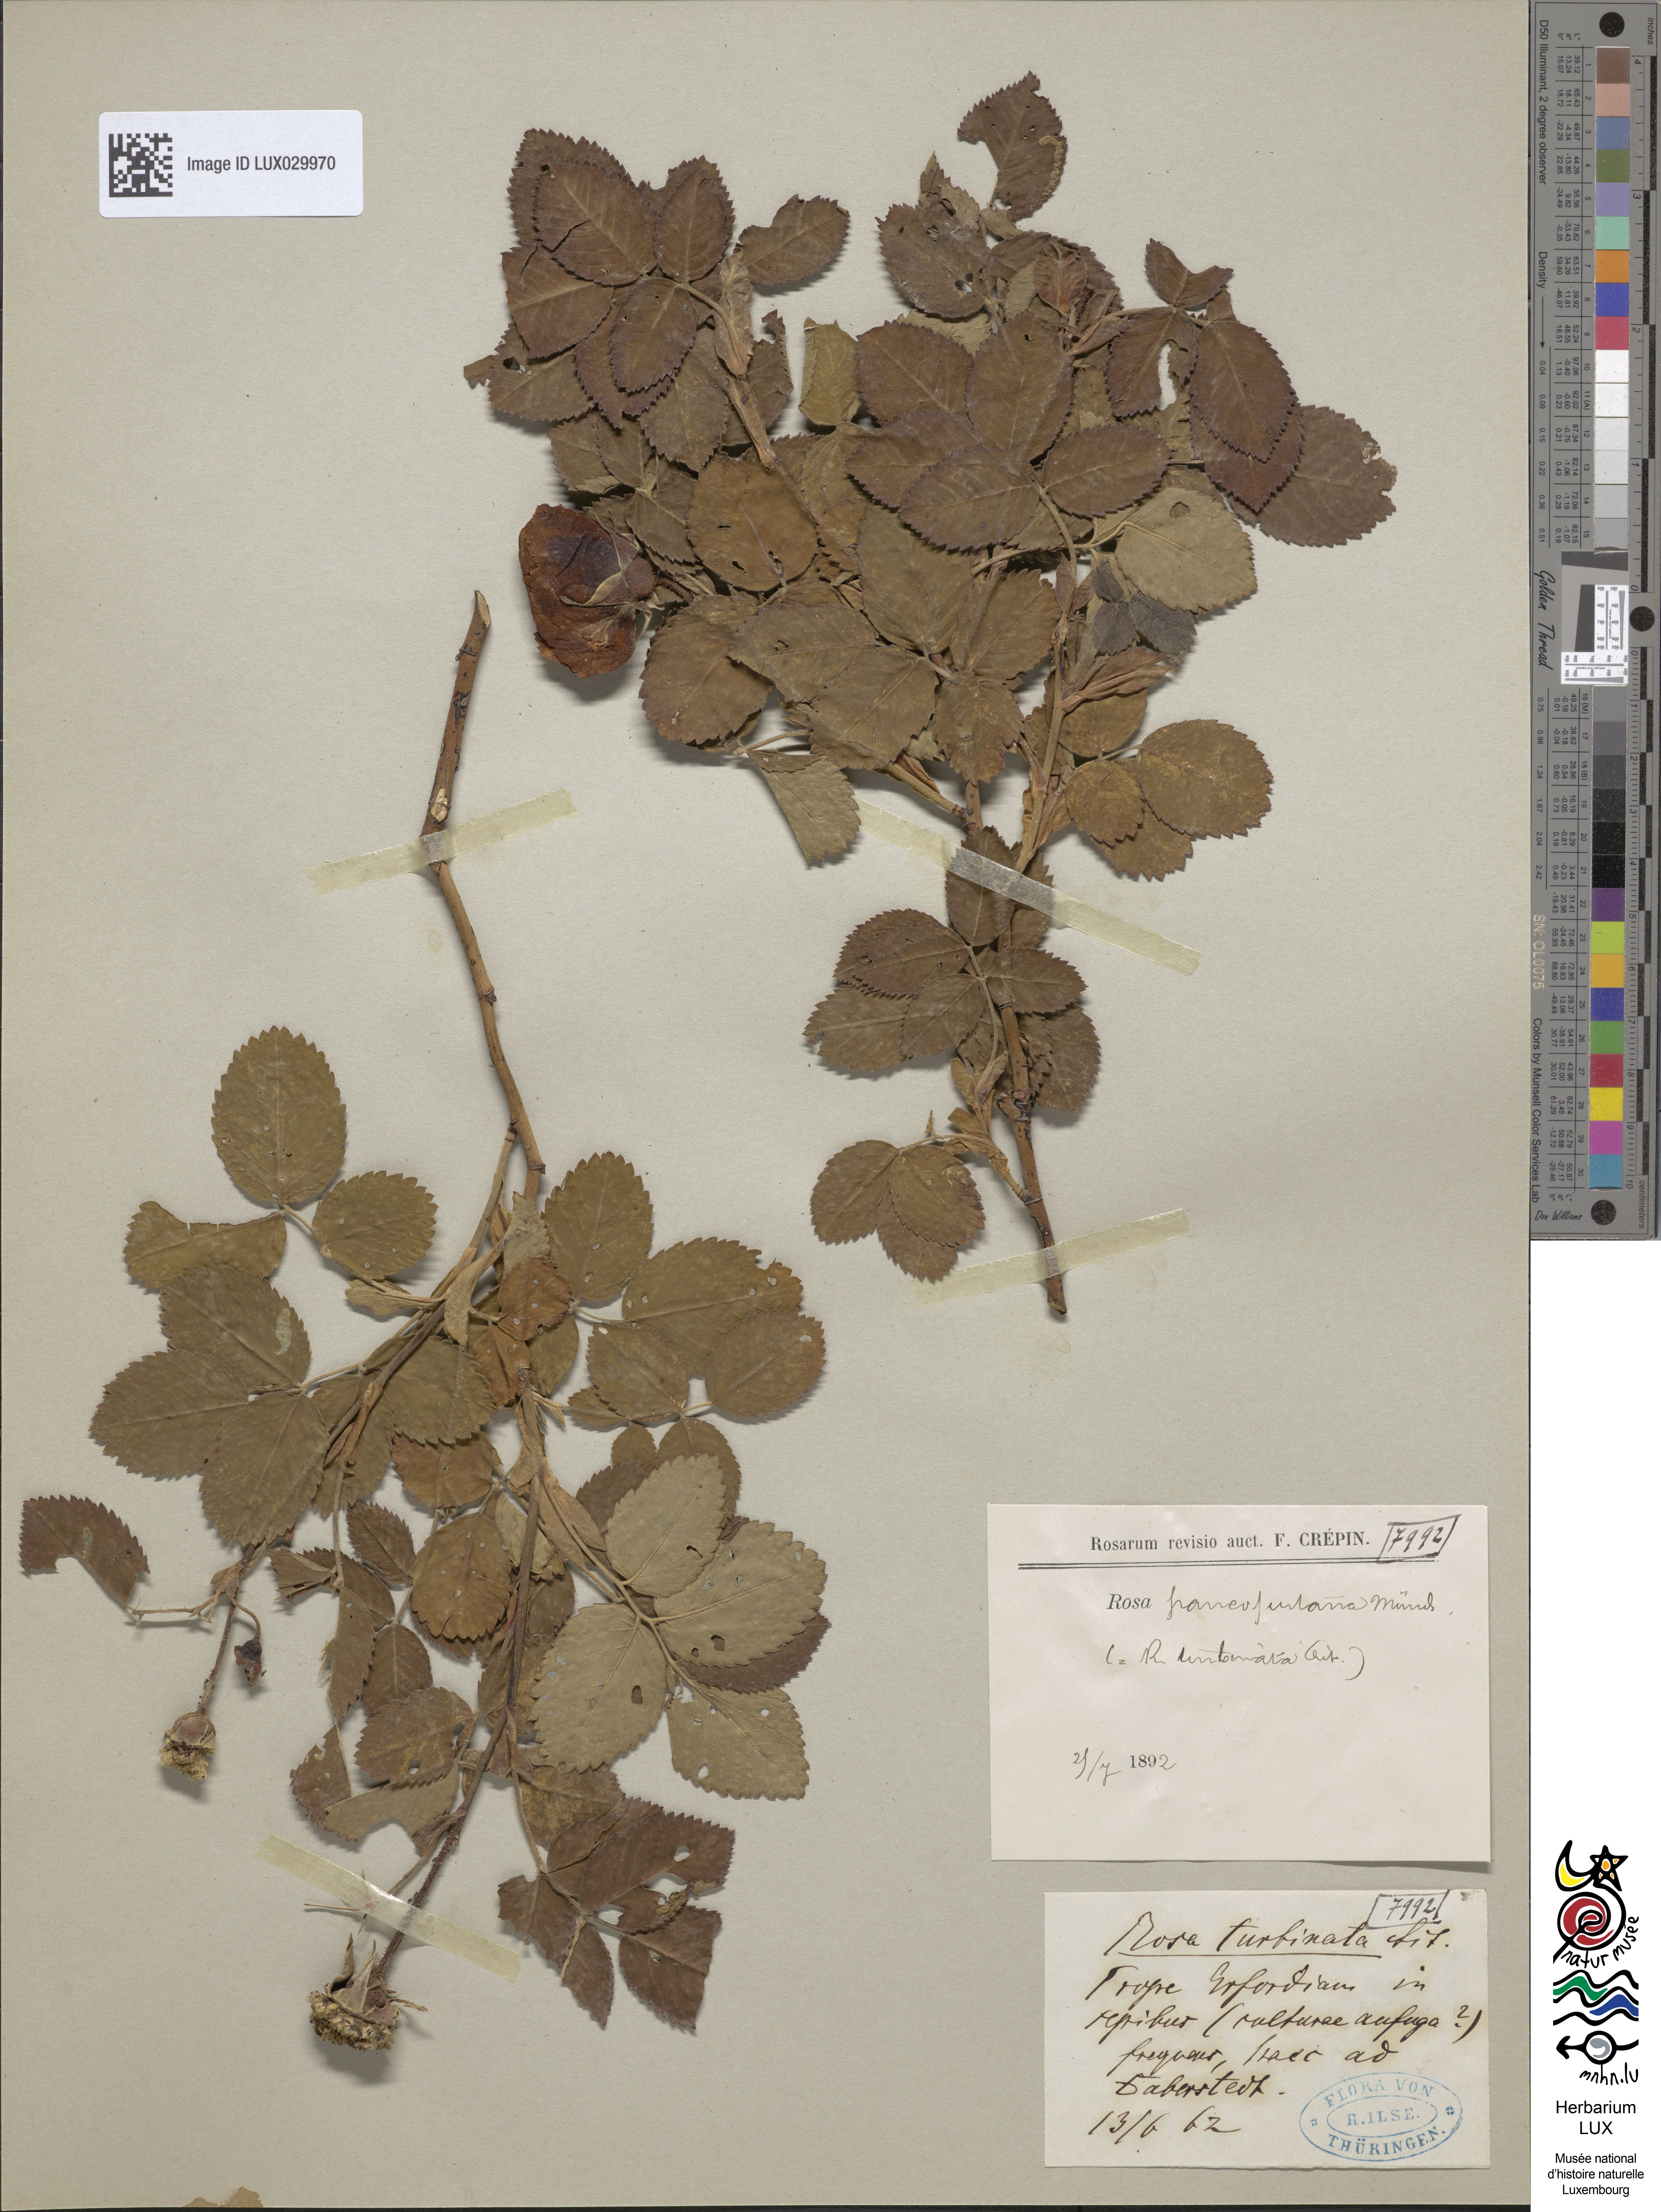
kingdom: Plantae
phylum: Tracheophyta
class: Magnoliopsida
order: Rosales
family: Rosaceae
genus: Rosa
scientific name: Rosa campanulata
